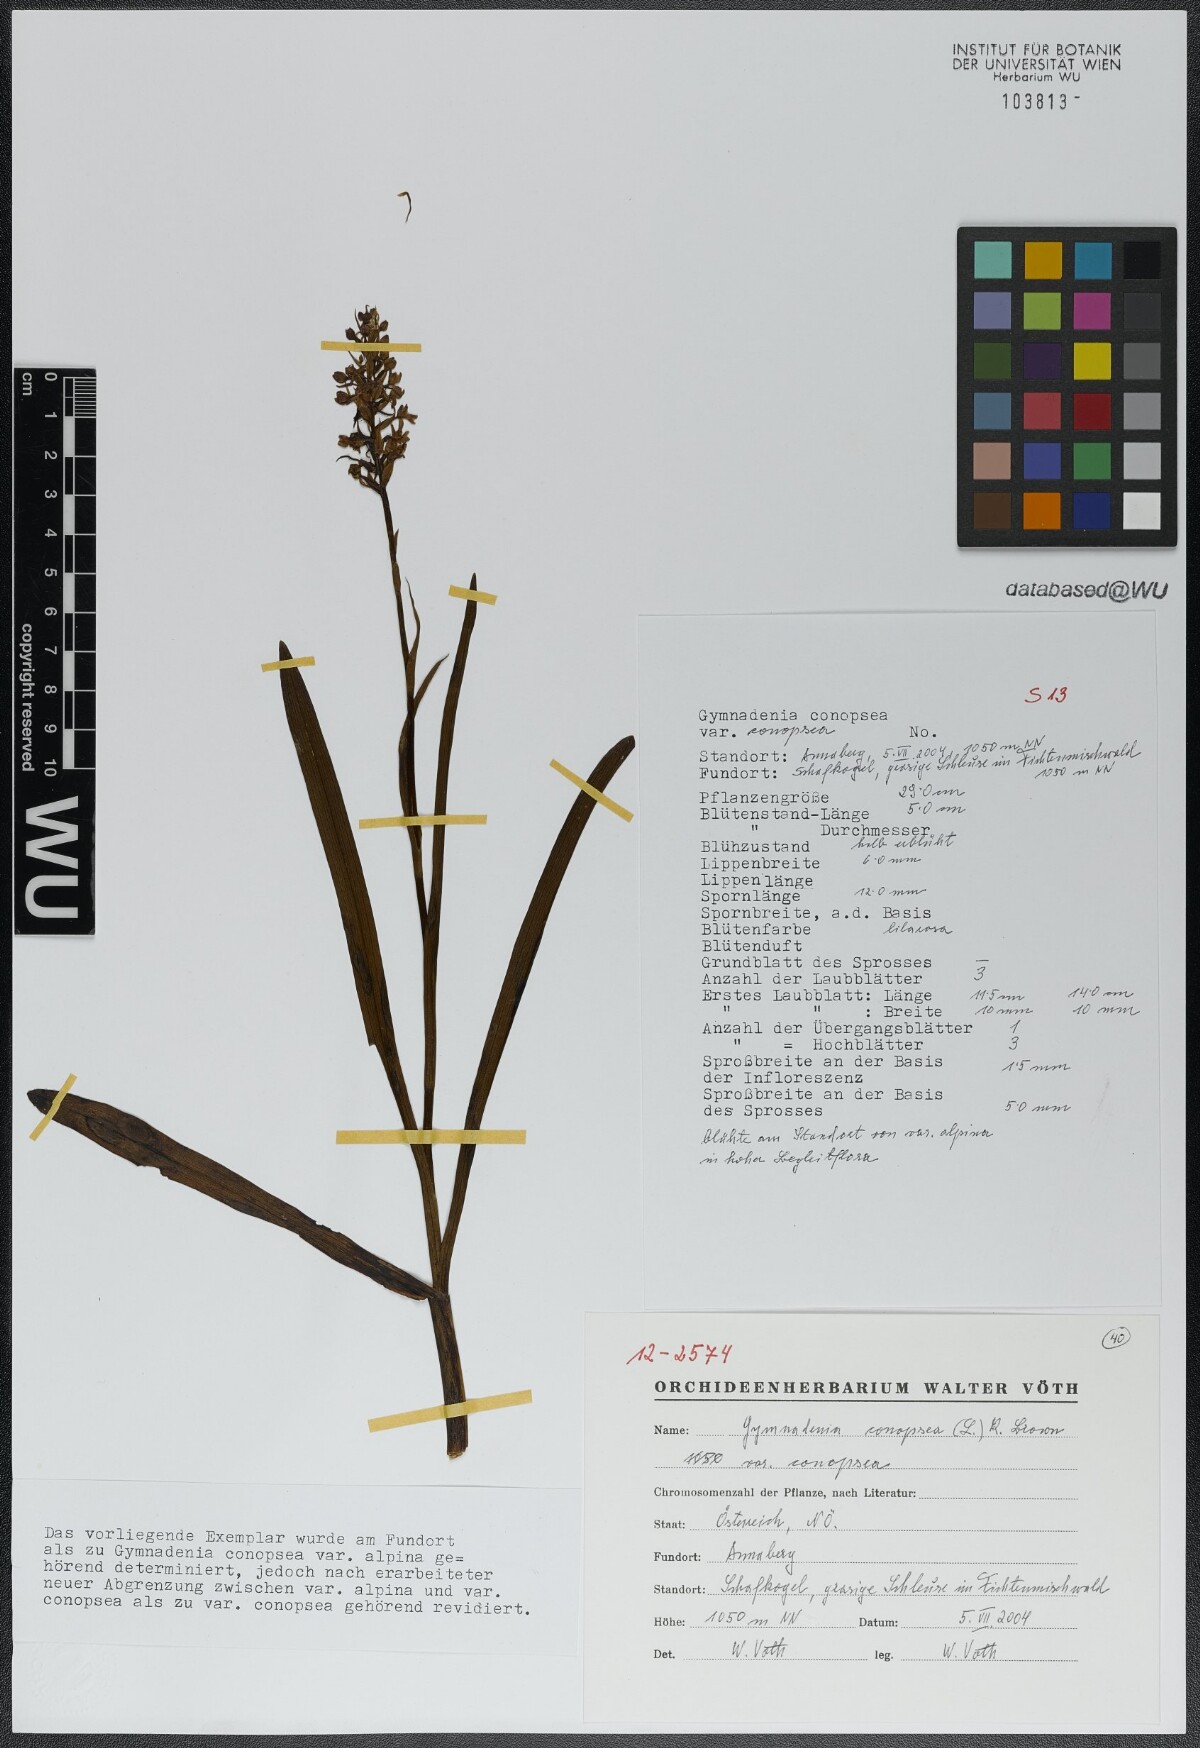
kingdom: Plantae
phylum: Tracheophyta
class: Liliopsida
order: Asparagales
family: Orchidaceae
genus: Gymnadenia
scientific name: Gymnadenia conopsea
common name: Fragrant orchid
